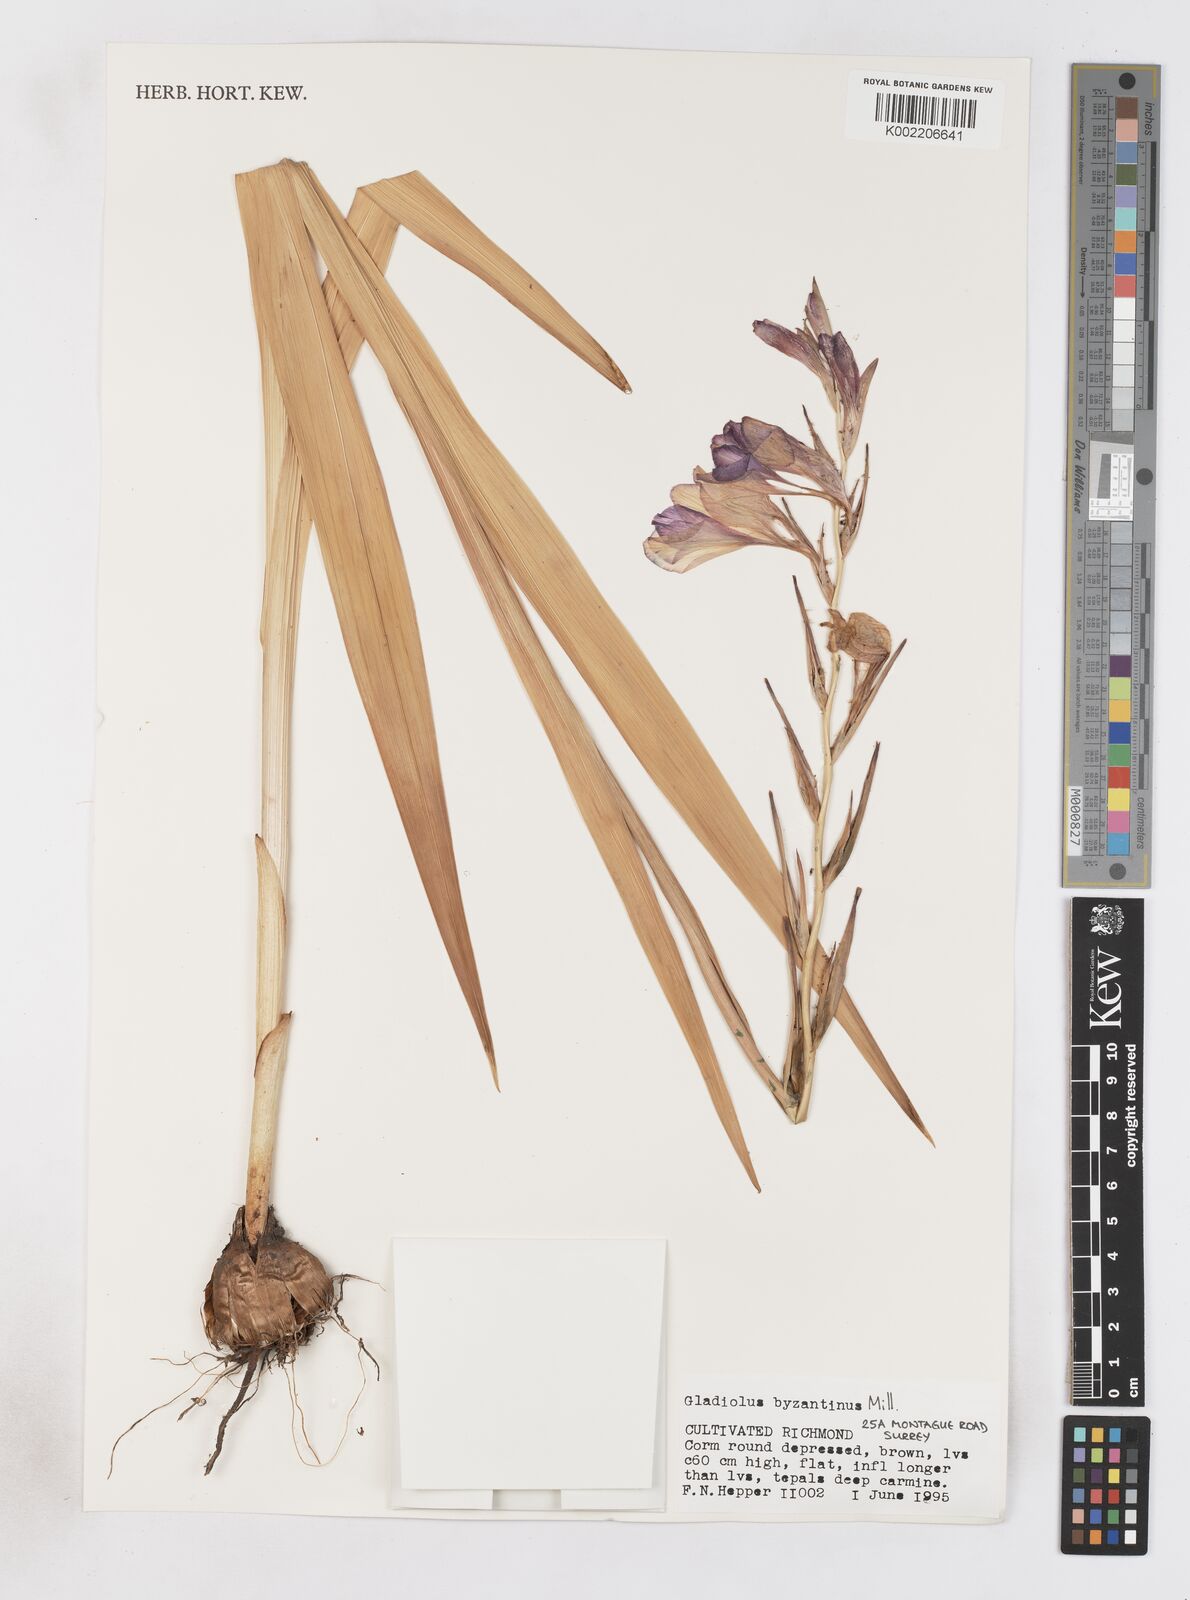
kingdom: Plantae
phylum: Tracheophyta
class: Liliopsida
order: Asparagales
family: Iridaceae
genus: Gladiolus
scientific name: Gladiolus byzantinus
